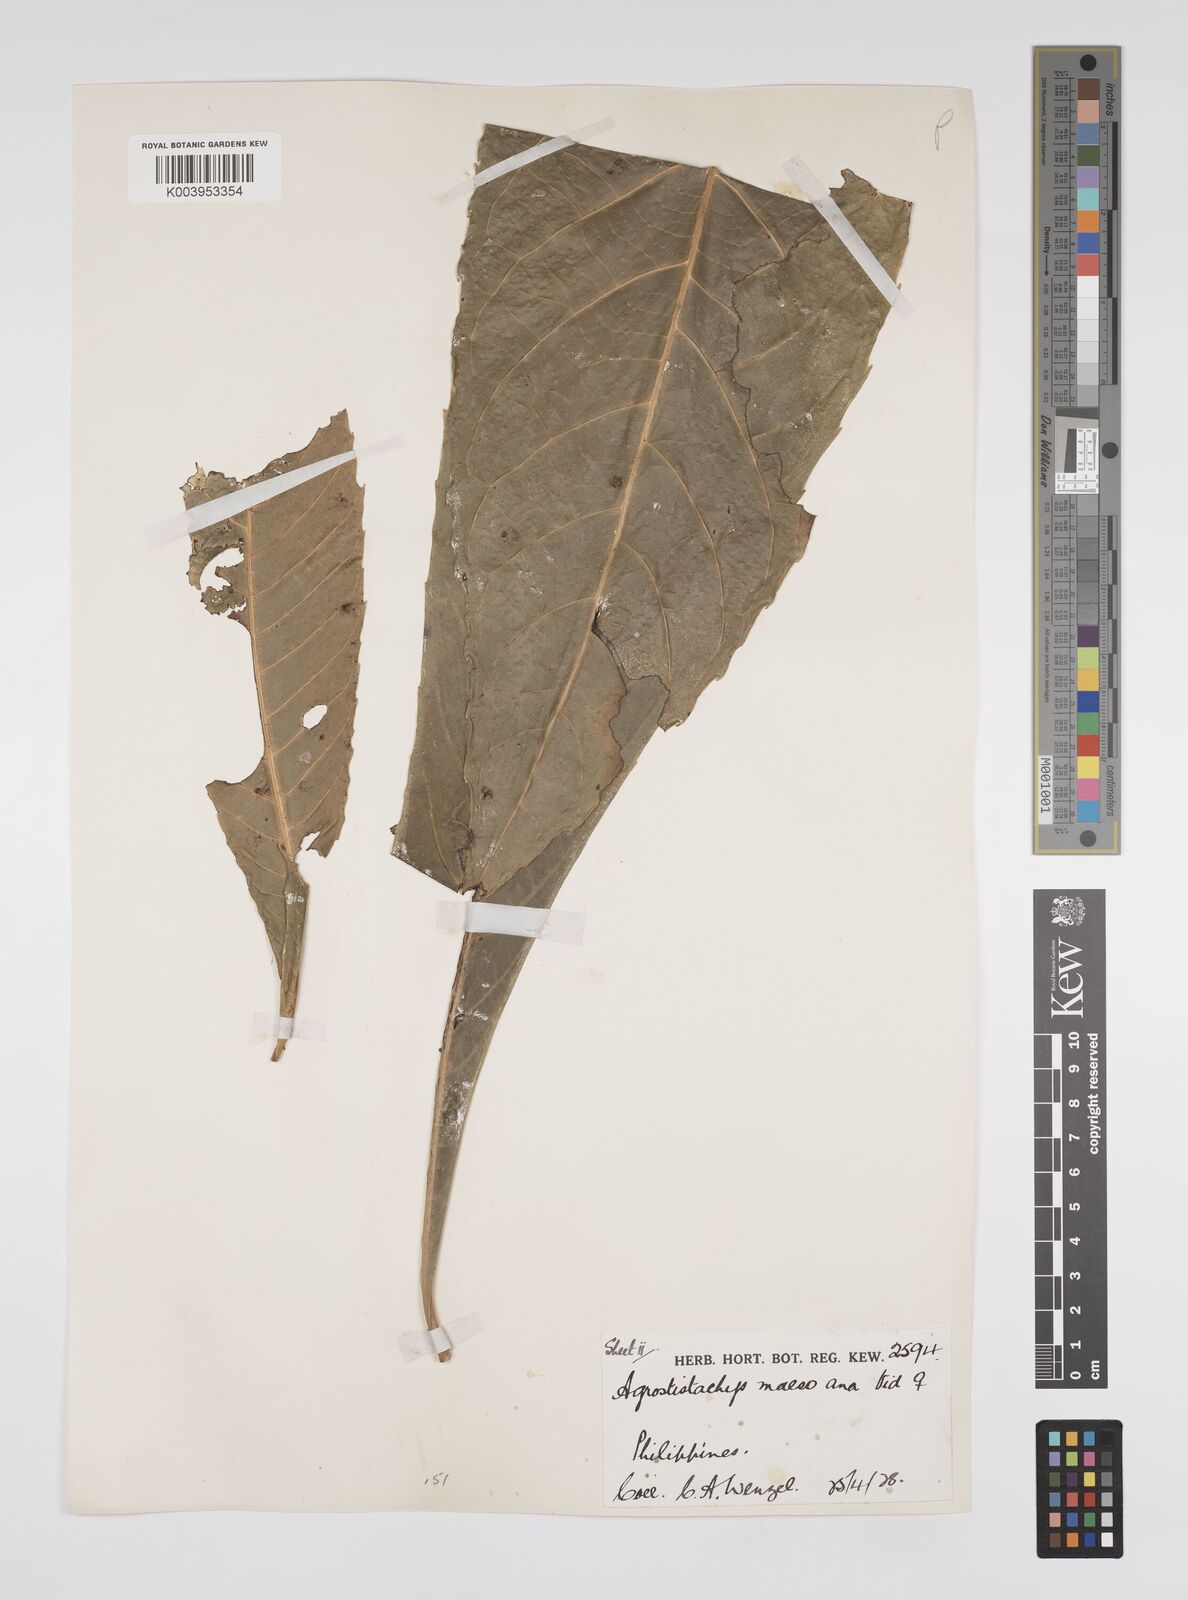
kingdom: Plantae
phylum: Tracheophyta
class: Magnoliopsida
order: Malpighiales
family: Euphorbiaceae
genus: Agrostistachys
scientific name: Agrostistachys indica
